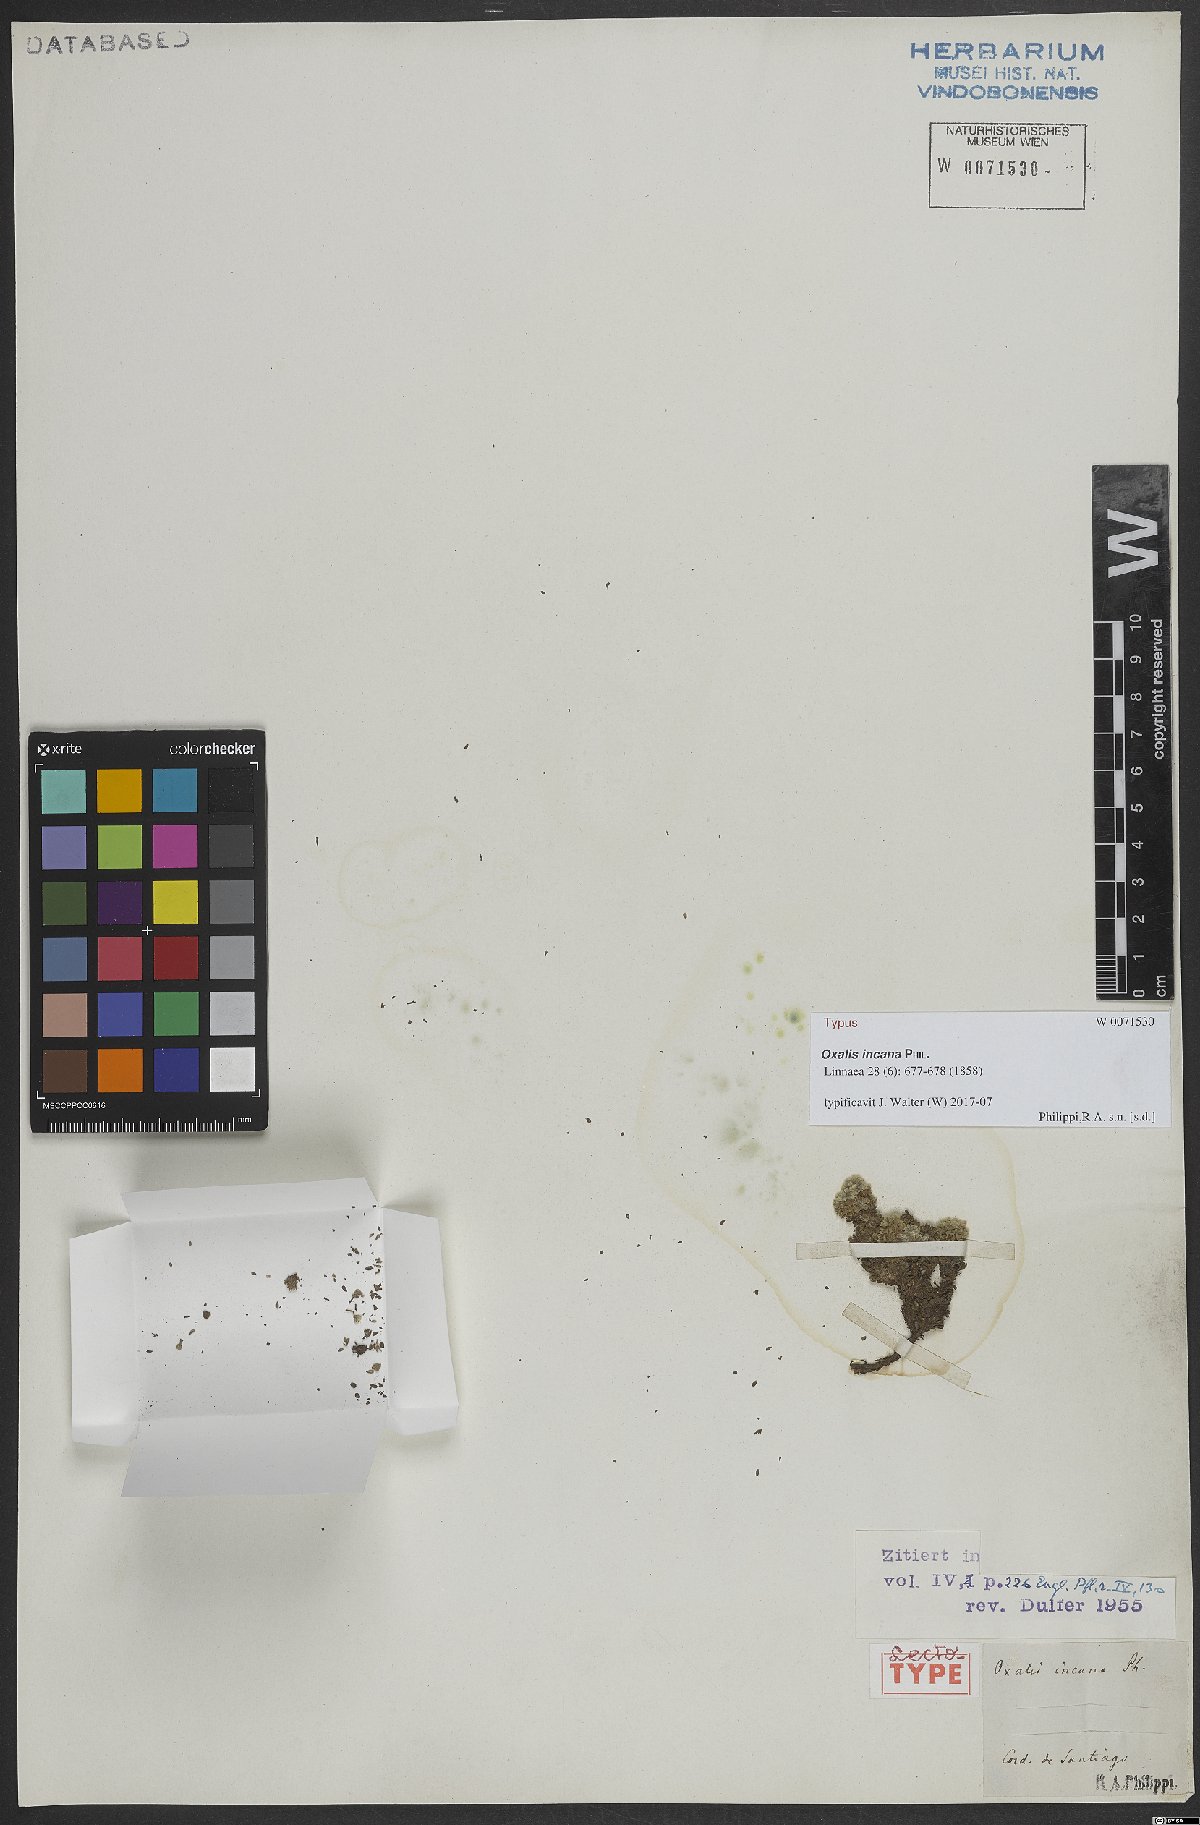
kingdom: Plantae
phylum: Tracheophyta
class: Magnoliopsida
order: Oxalidales
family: Oxalidaceae
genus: Oxalis
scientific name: Oxalis incana
